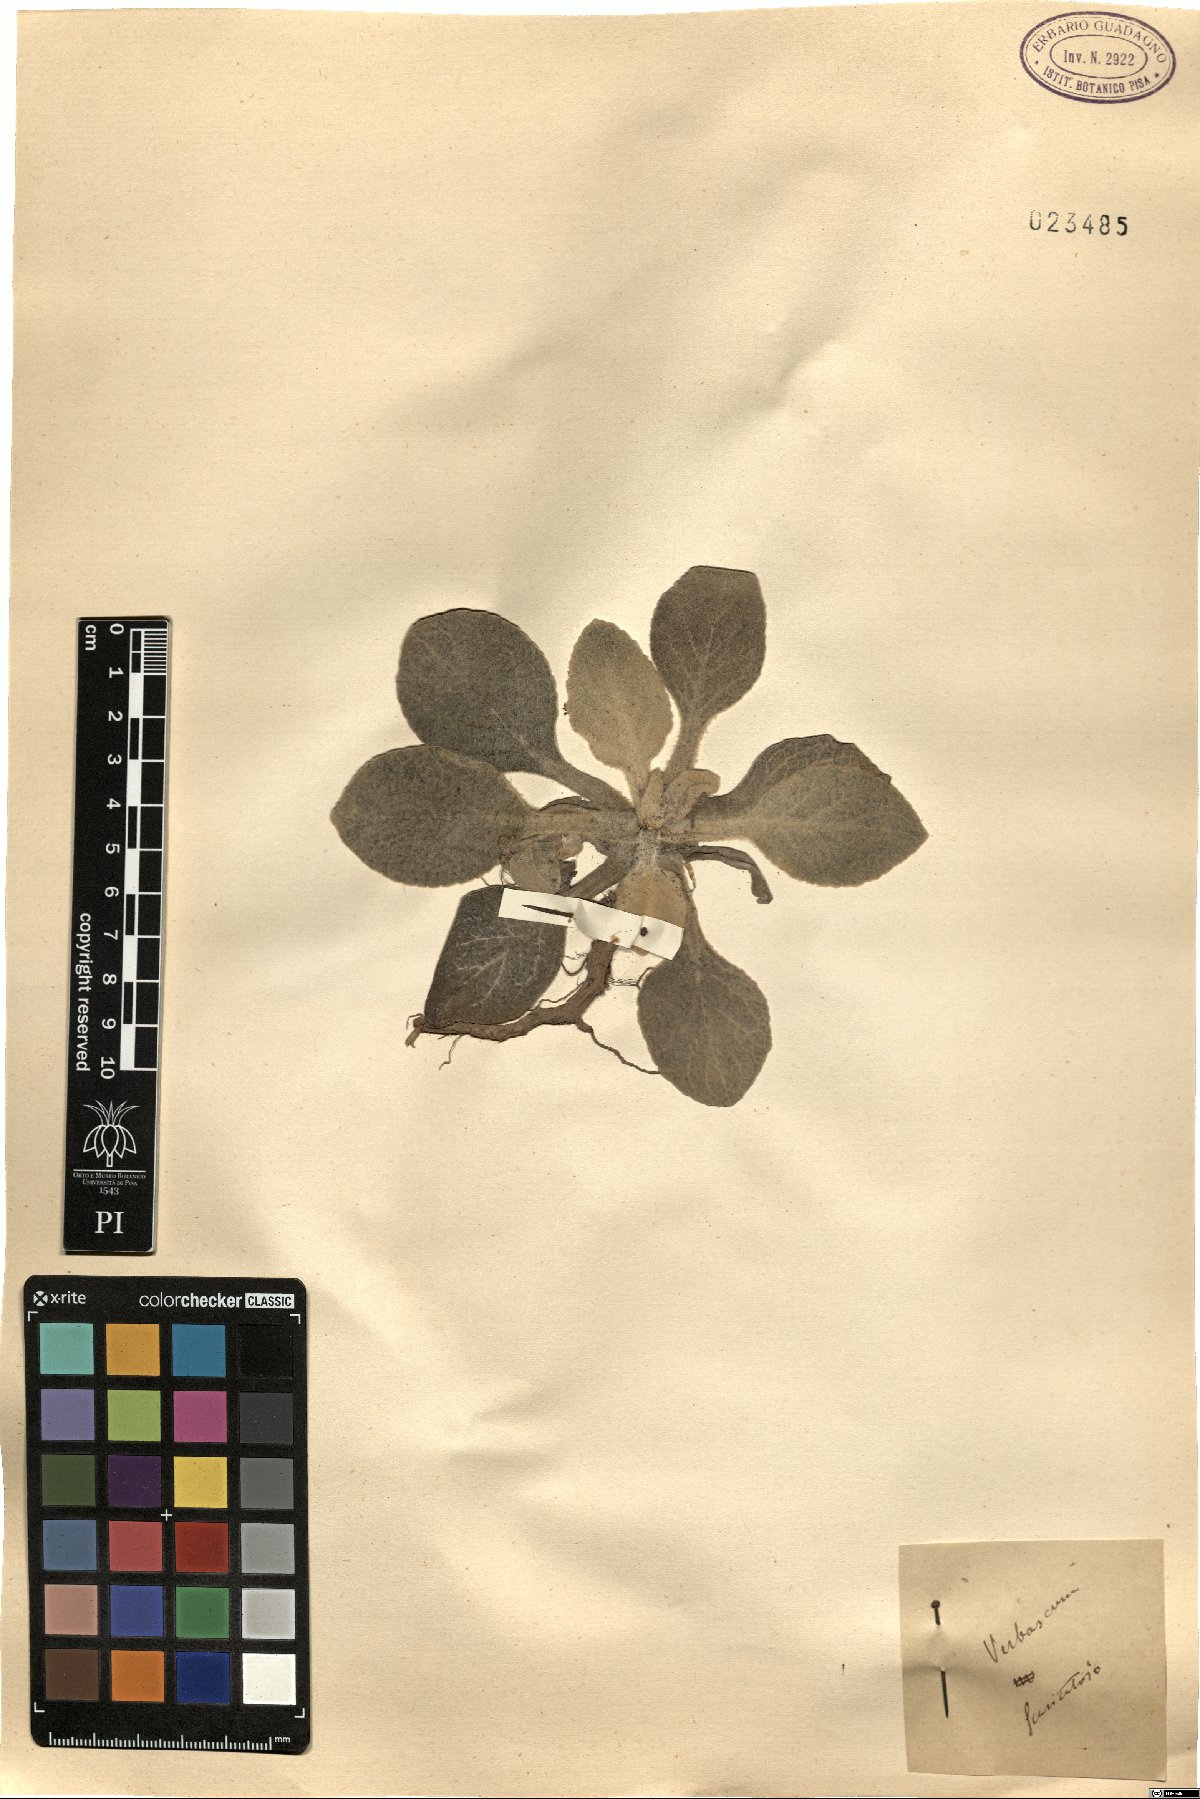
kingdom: Plantae
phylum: Tracheophyta
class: Magnoliopsida
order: Lamiales
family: Scrophulariaceae
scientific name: Scrophulariaceae
